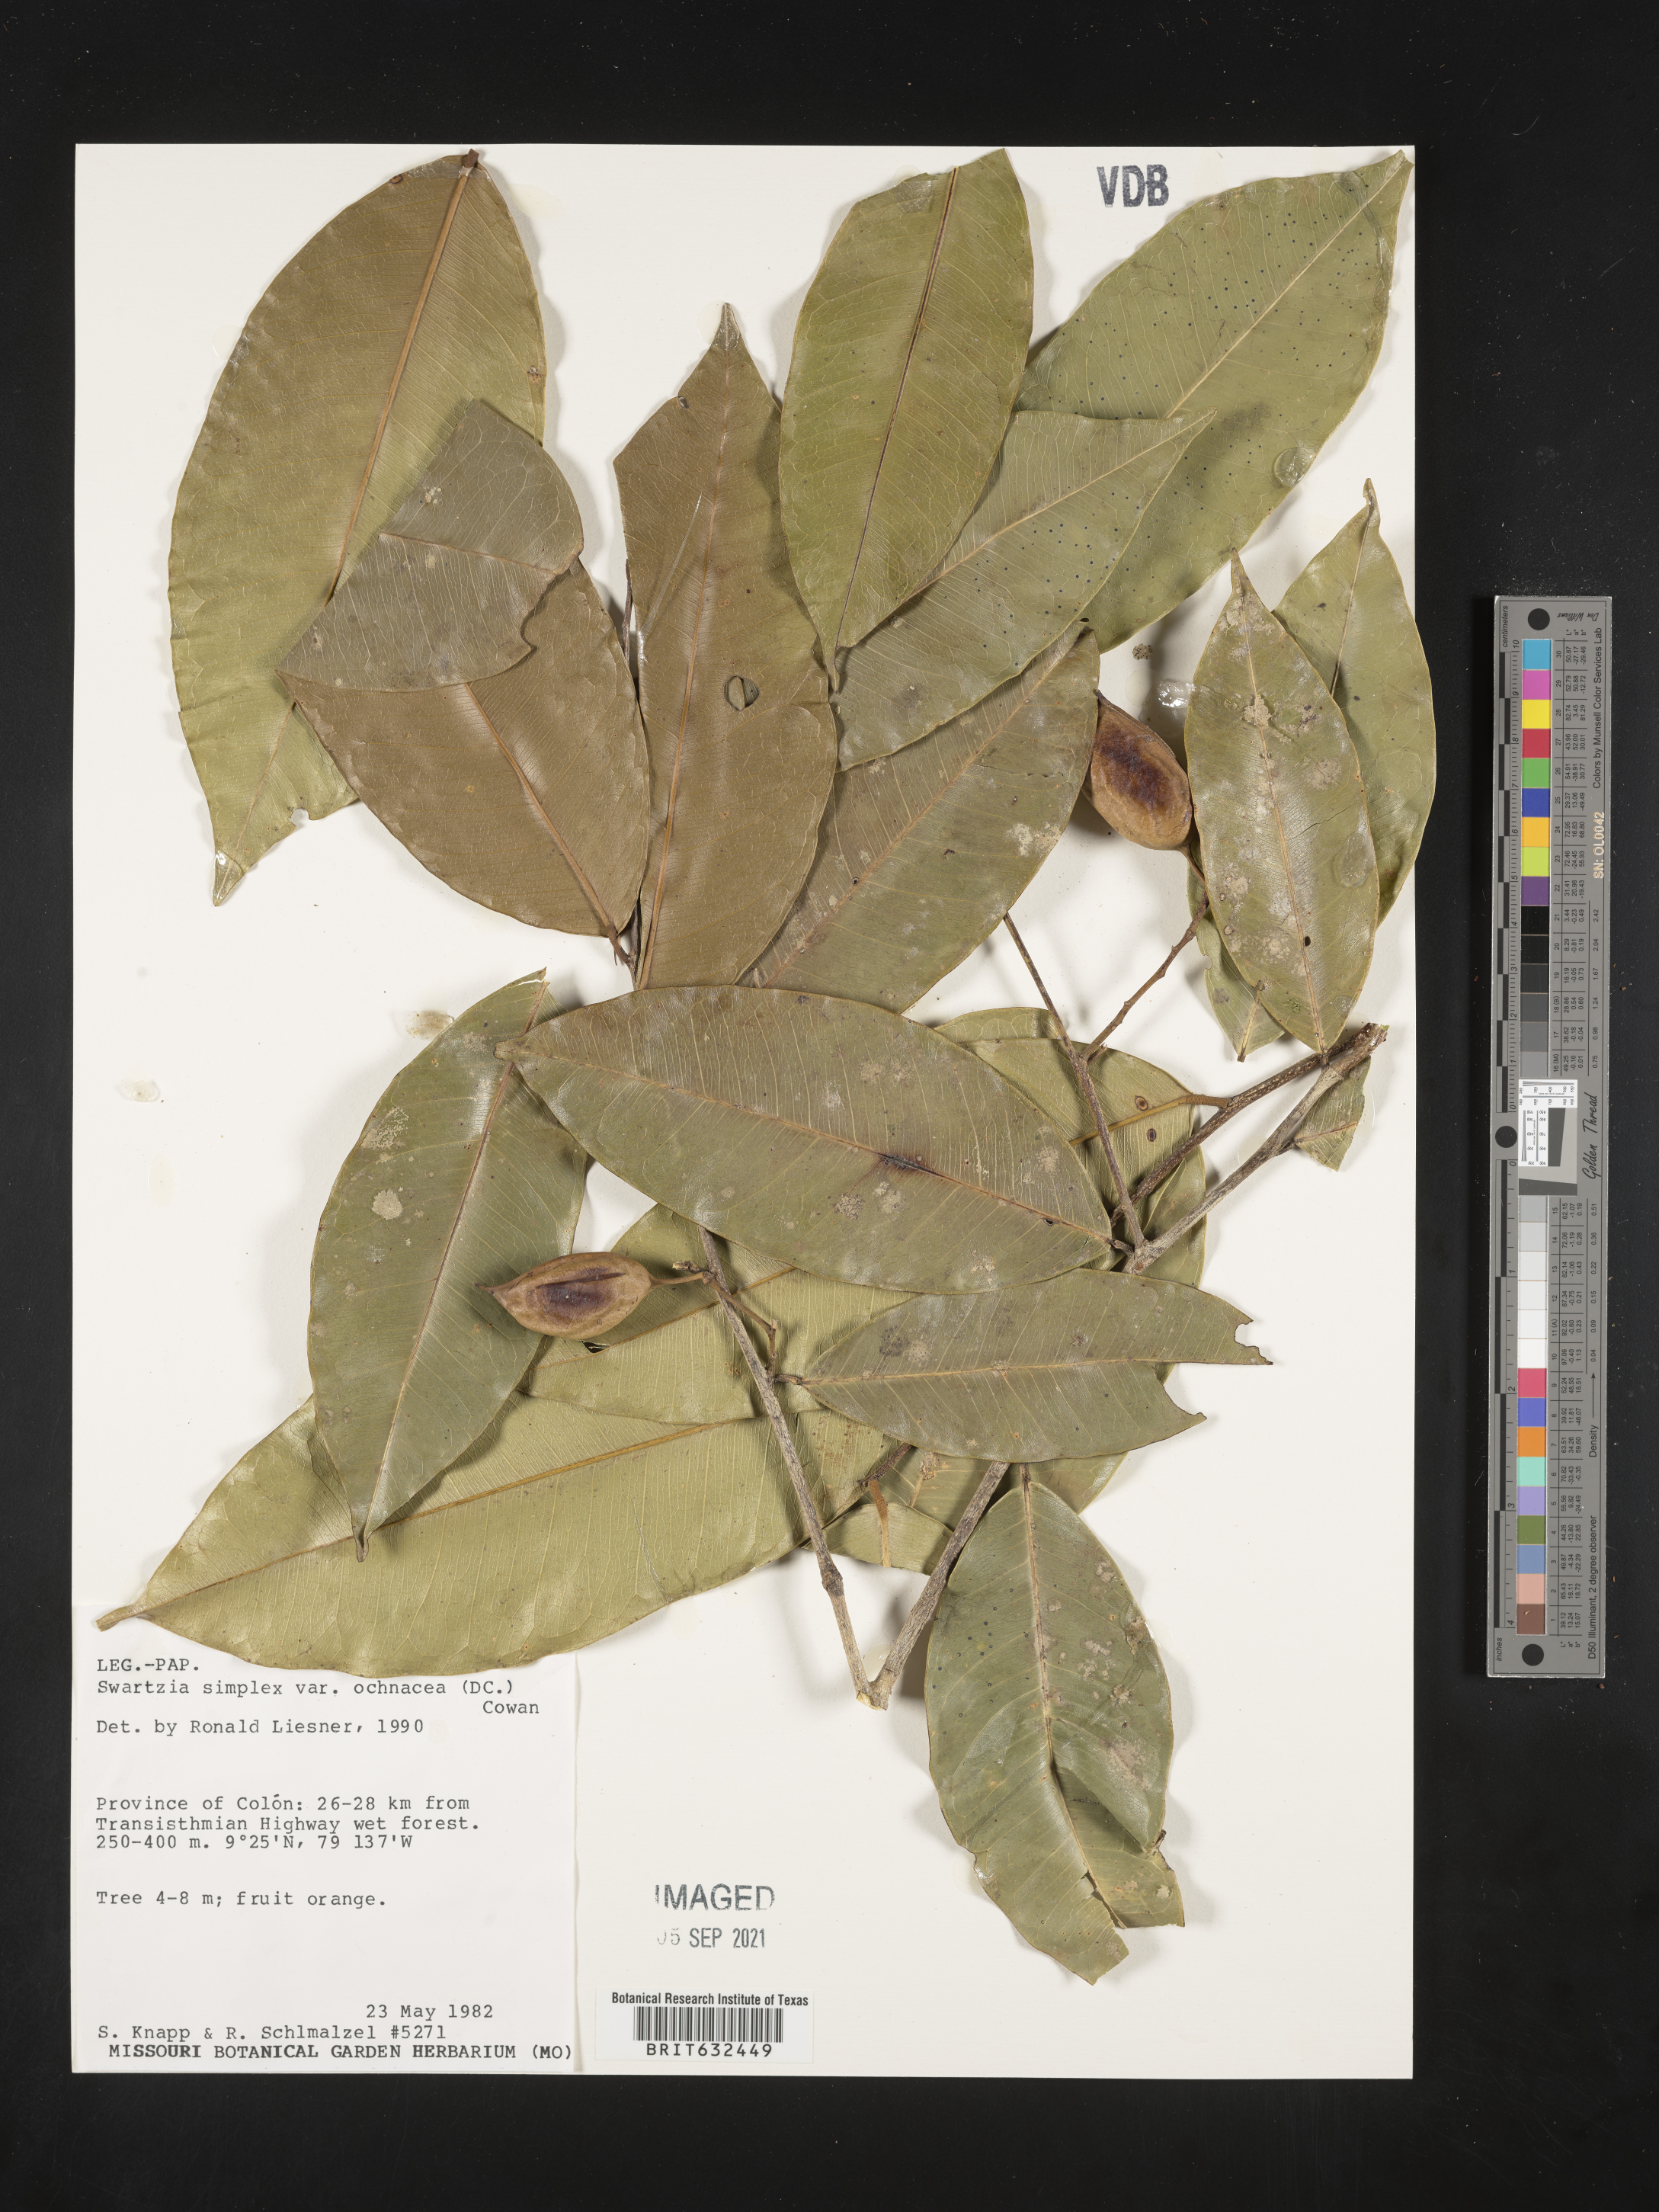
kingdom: Plantae
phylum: Tracheophyta
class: Magnoliopsida
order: Fabales
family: Fabaceae
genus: Swartzia
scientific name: Swartzia
